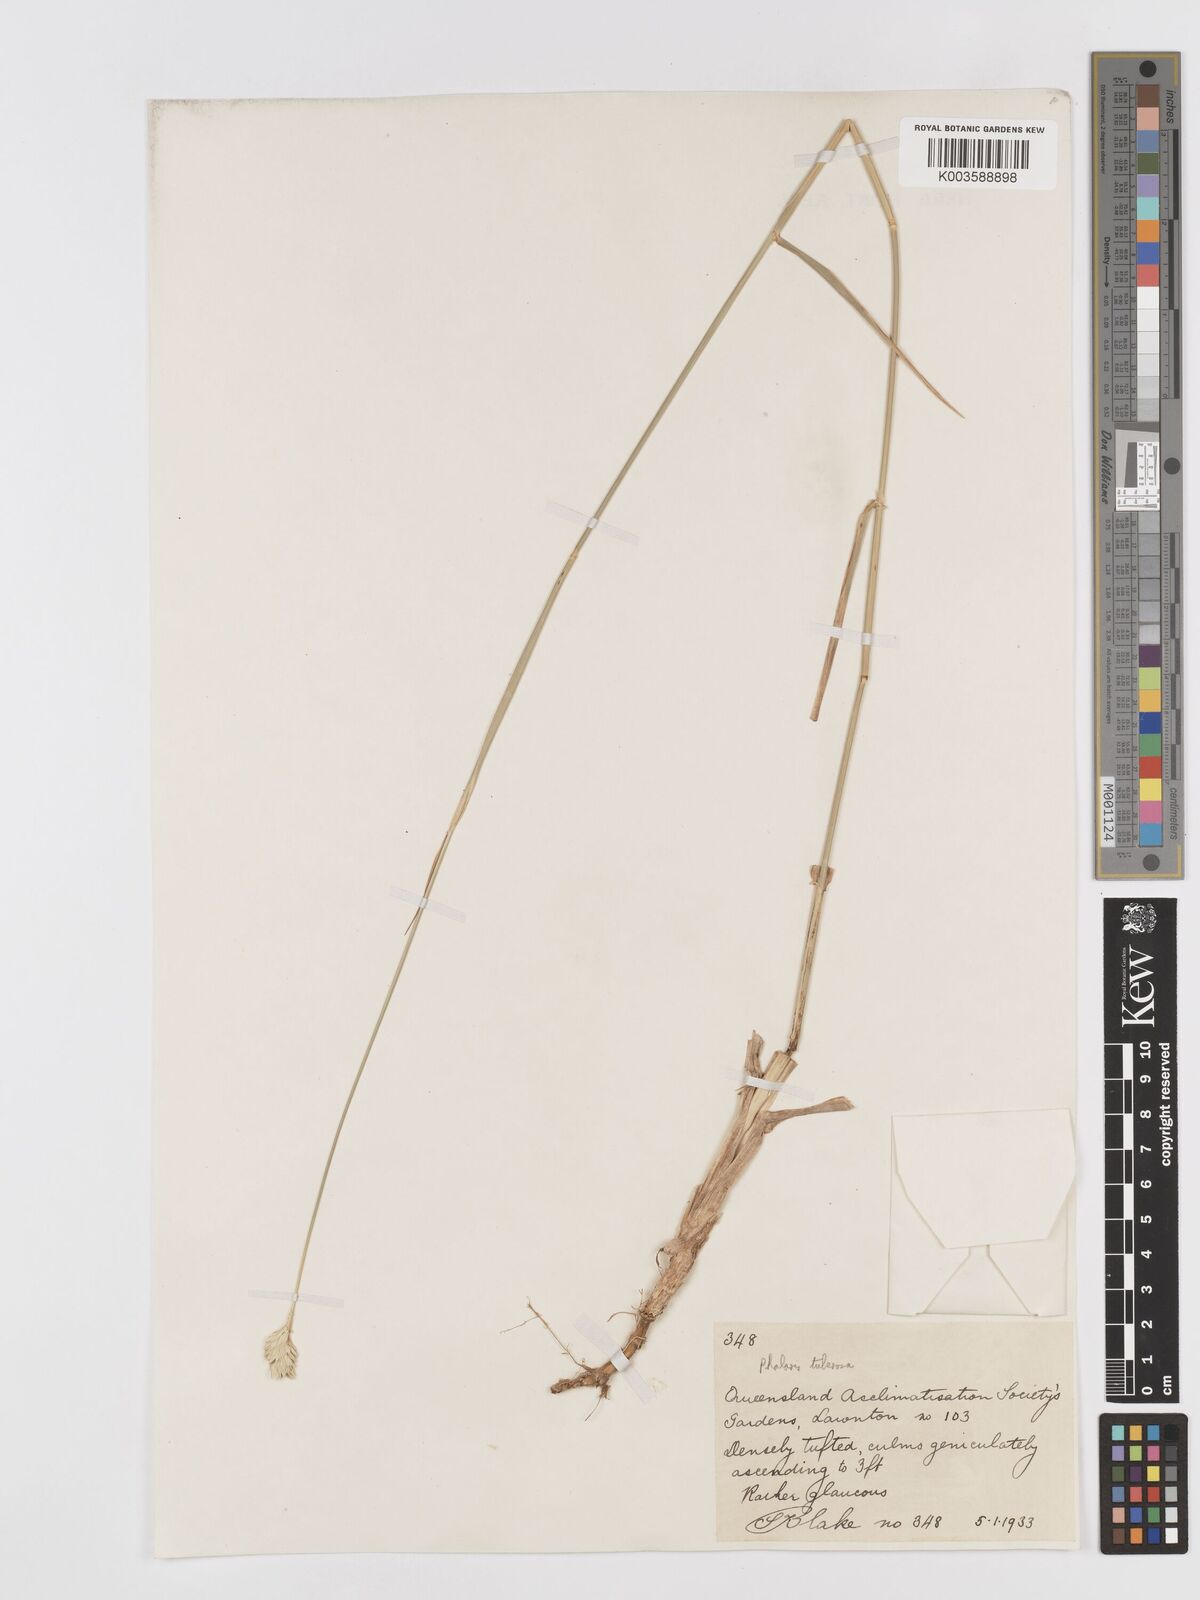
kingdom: Plantae
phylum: Tracheophyta
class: Liliopsida
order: Poales
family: Poaceae
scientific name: Poaceae
